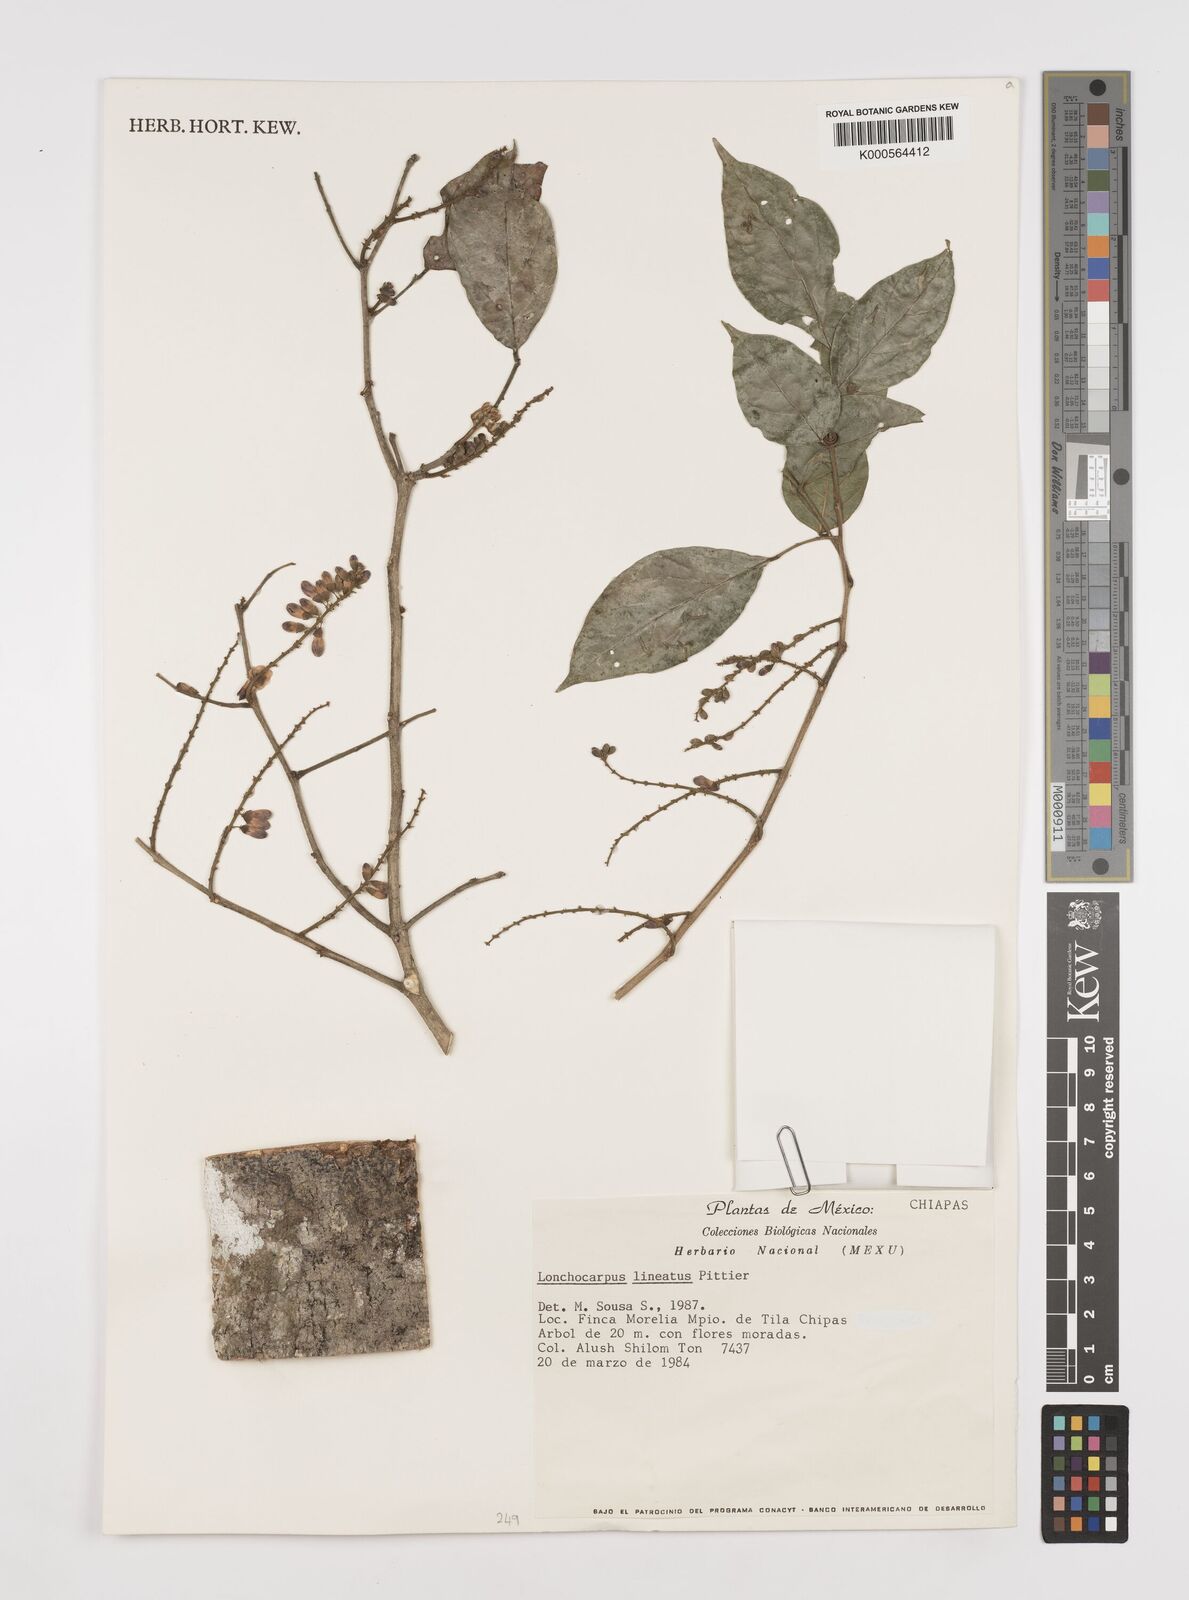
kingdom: Plantae
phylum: Tracheophyta
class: Magnoliopsida
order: Fabales
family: Fabaceae
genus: Lonchocarpus
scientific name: Lonchocarpus lineatus
